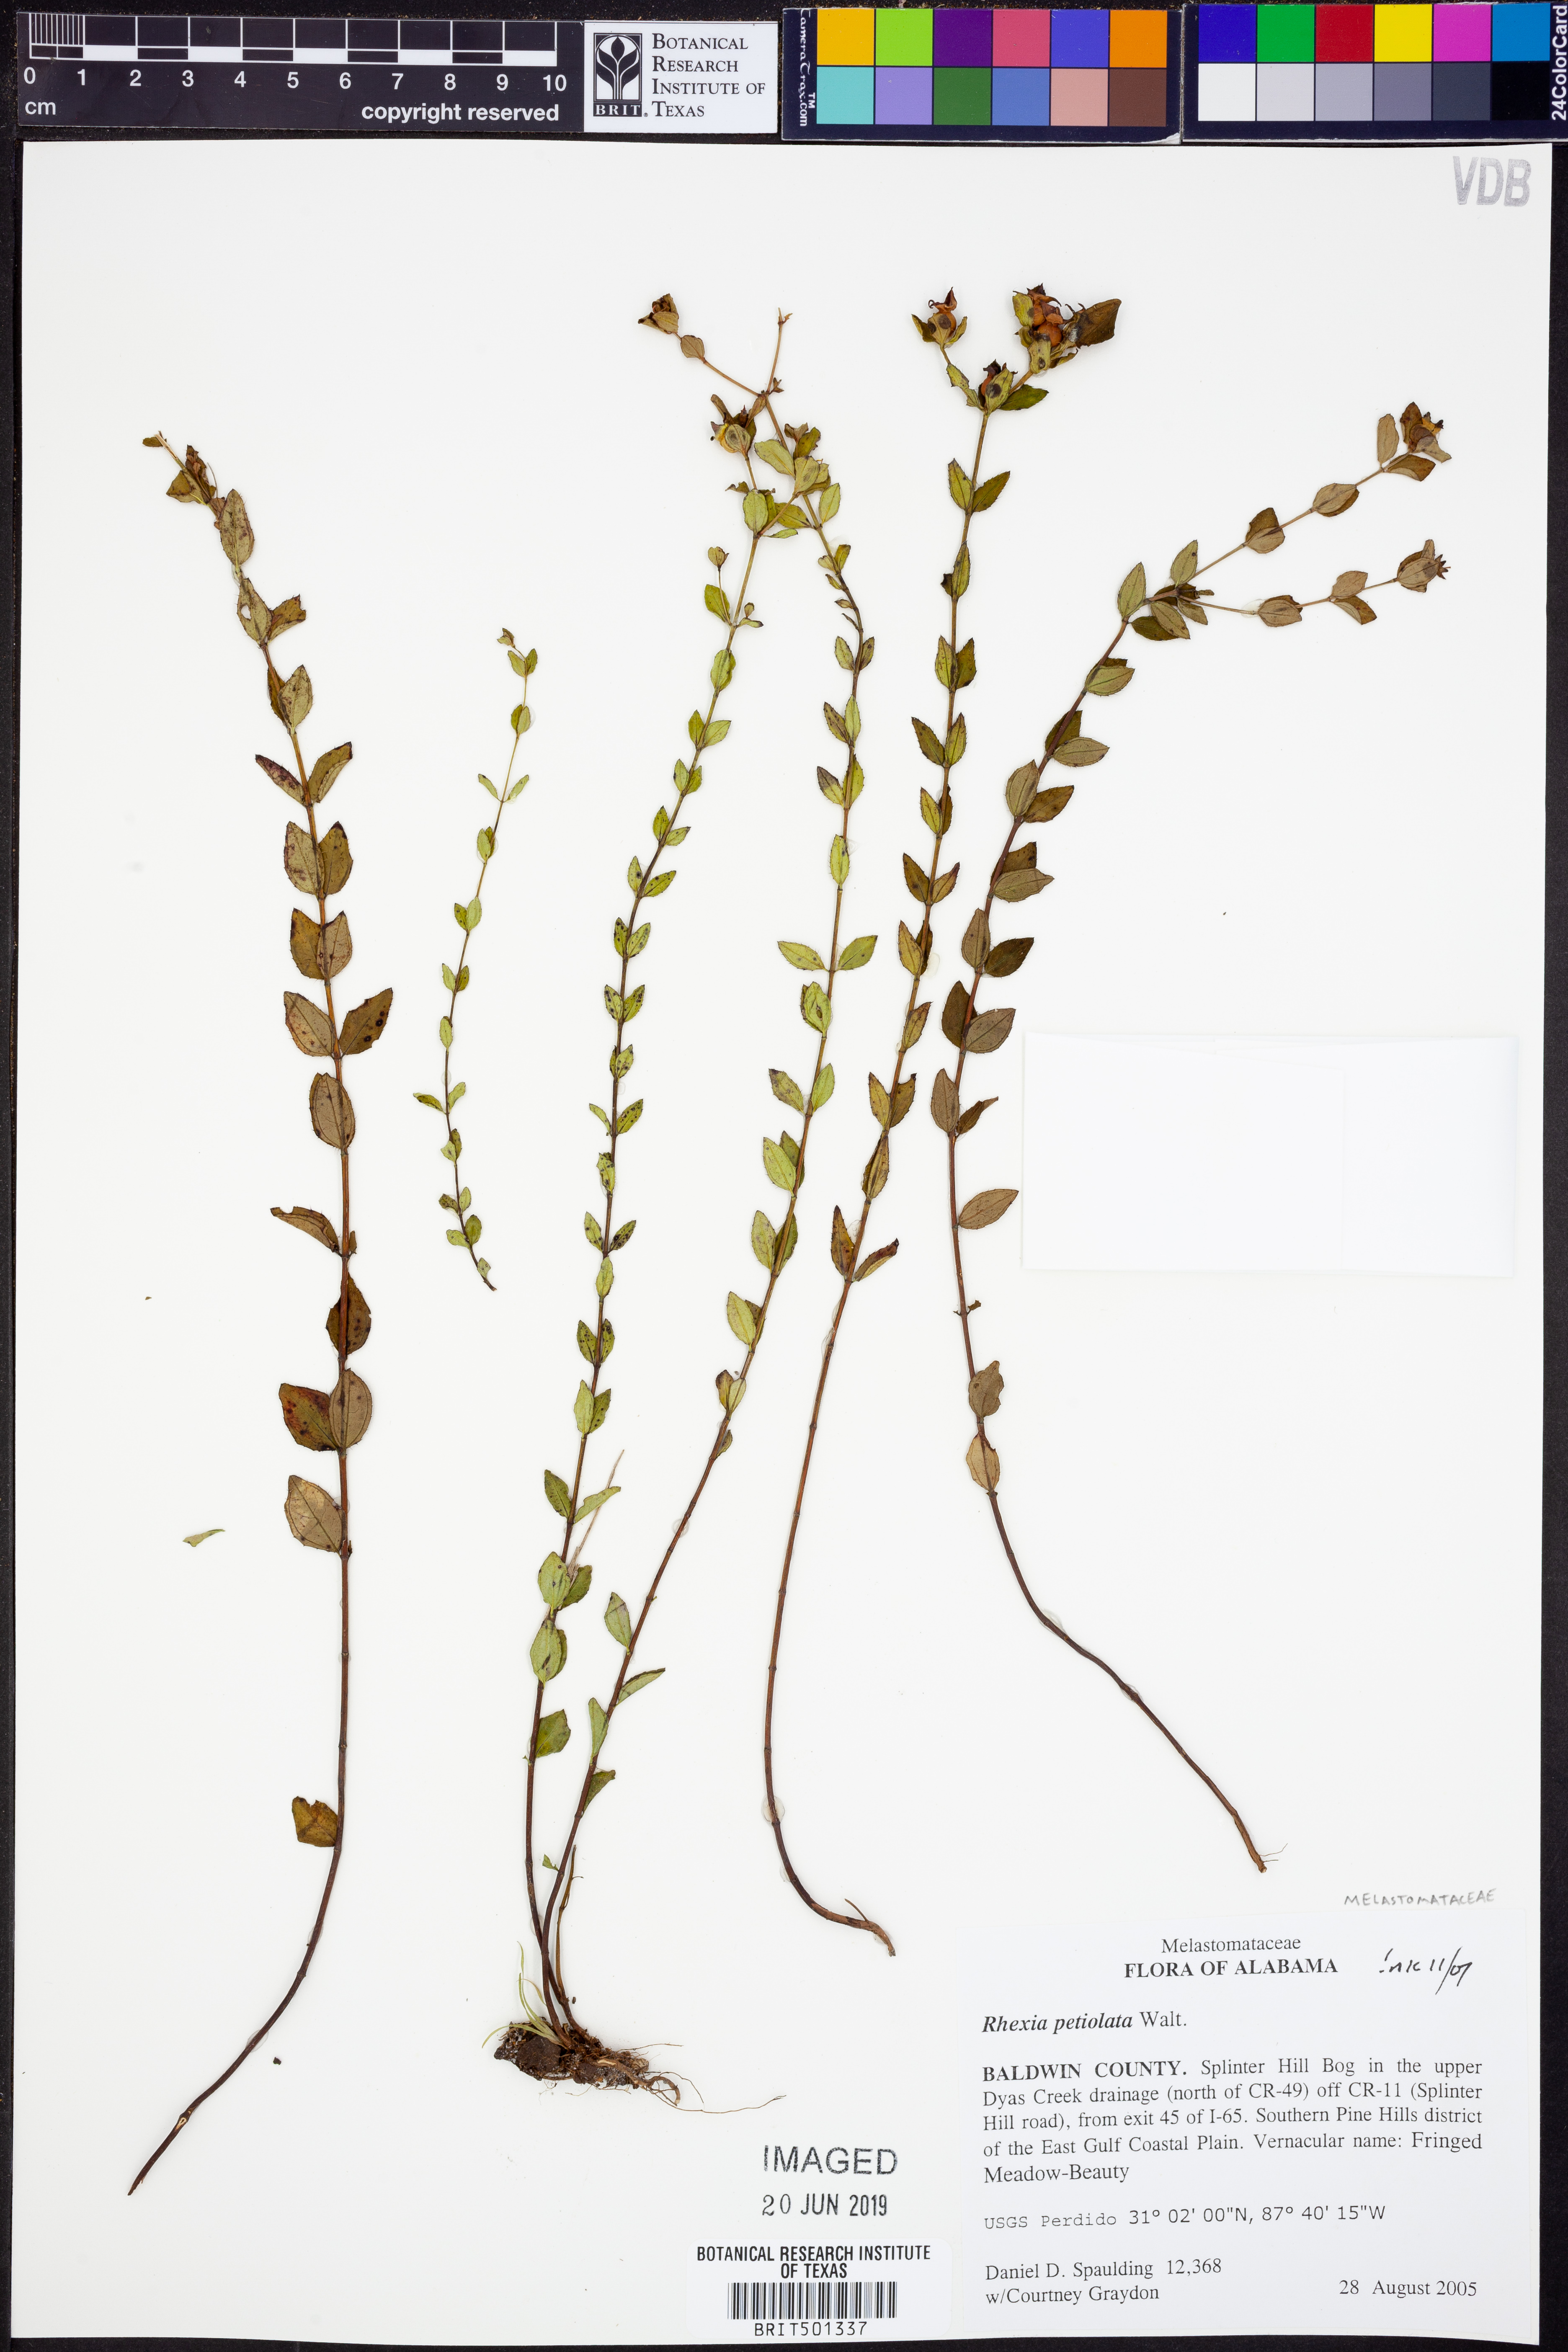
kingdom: Plantae
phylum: Tracheophyta
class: Magnoliopsida
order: Myrtales
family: Melastomataceae
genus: Rhexia
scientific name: Rhexia petiolata
